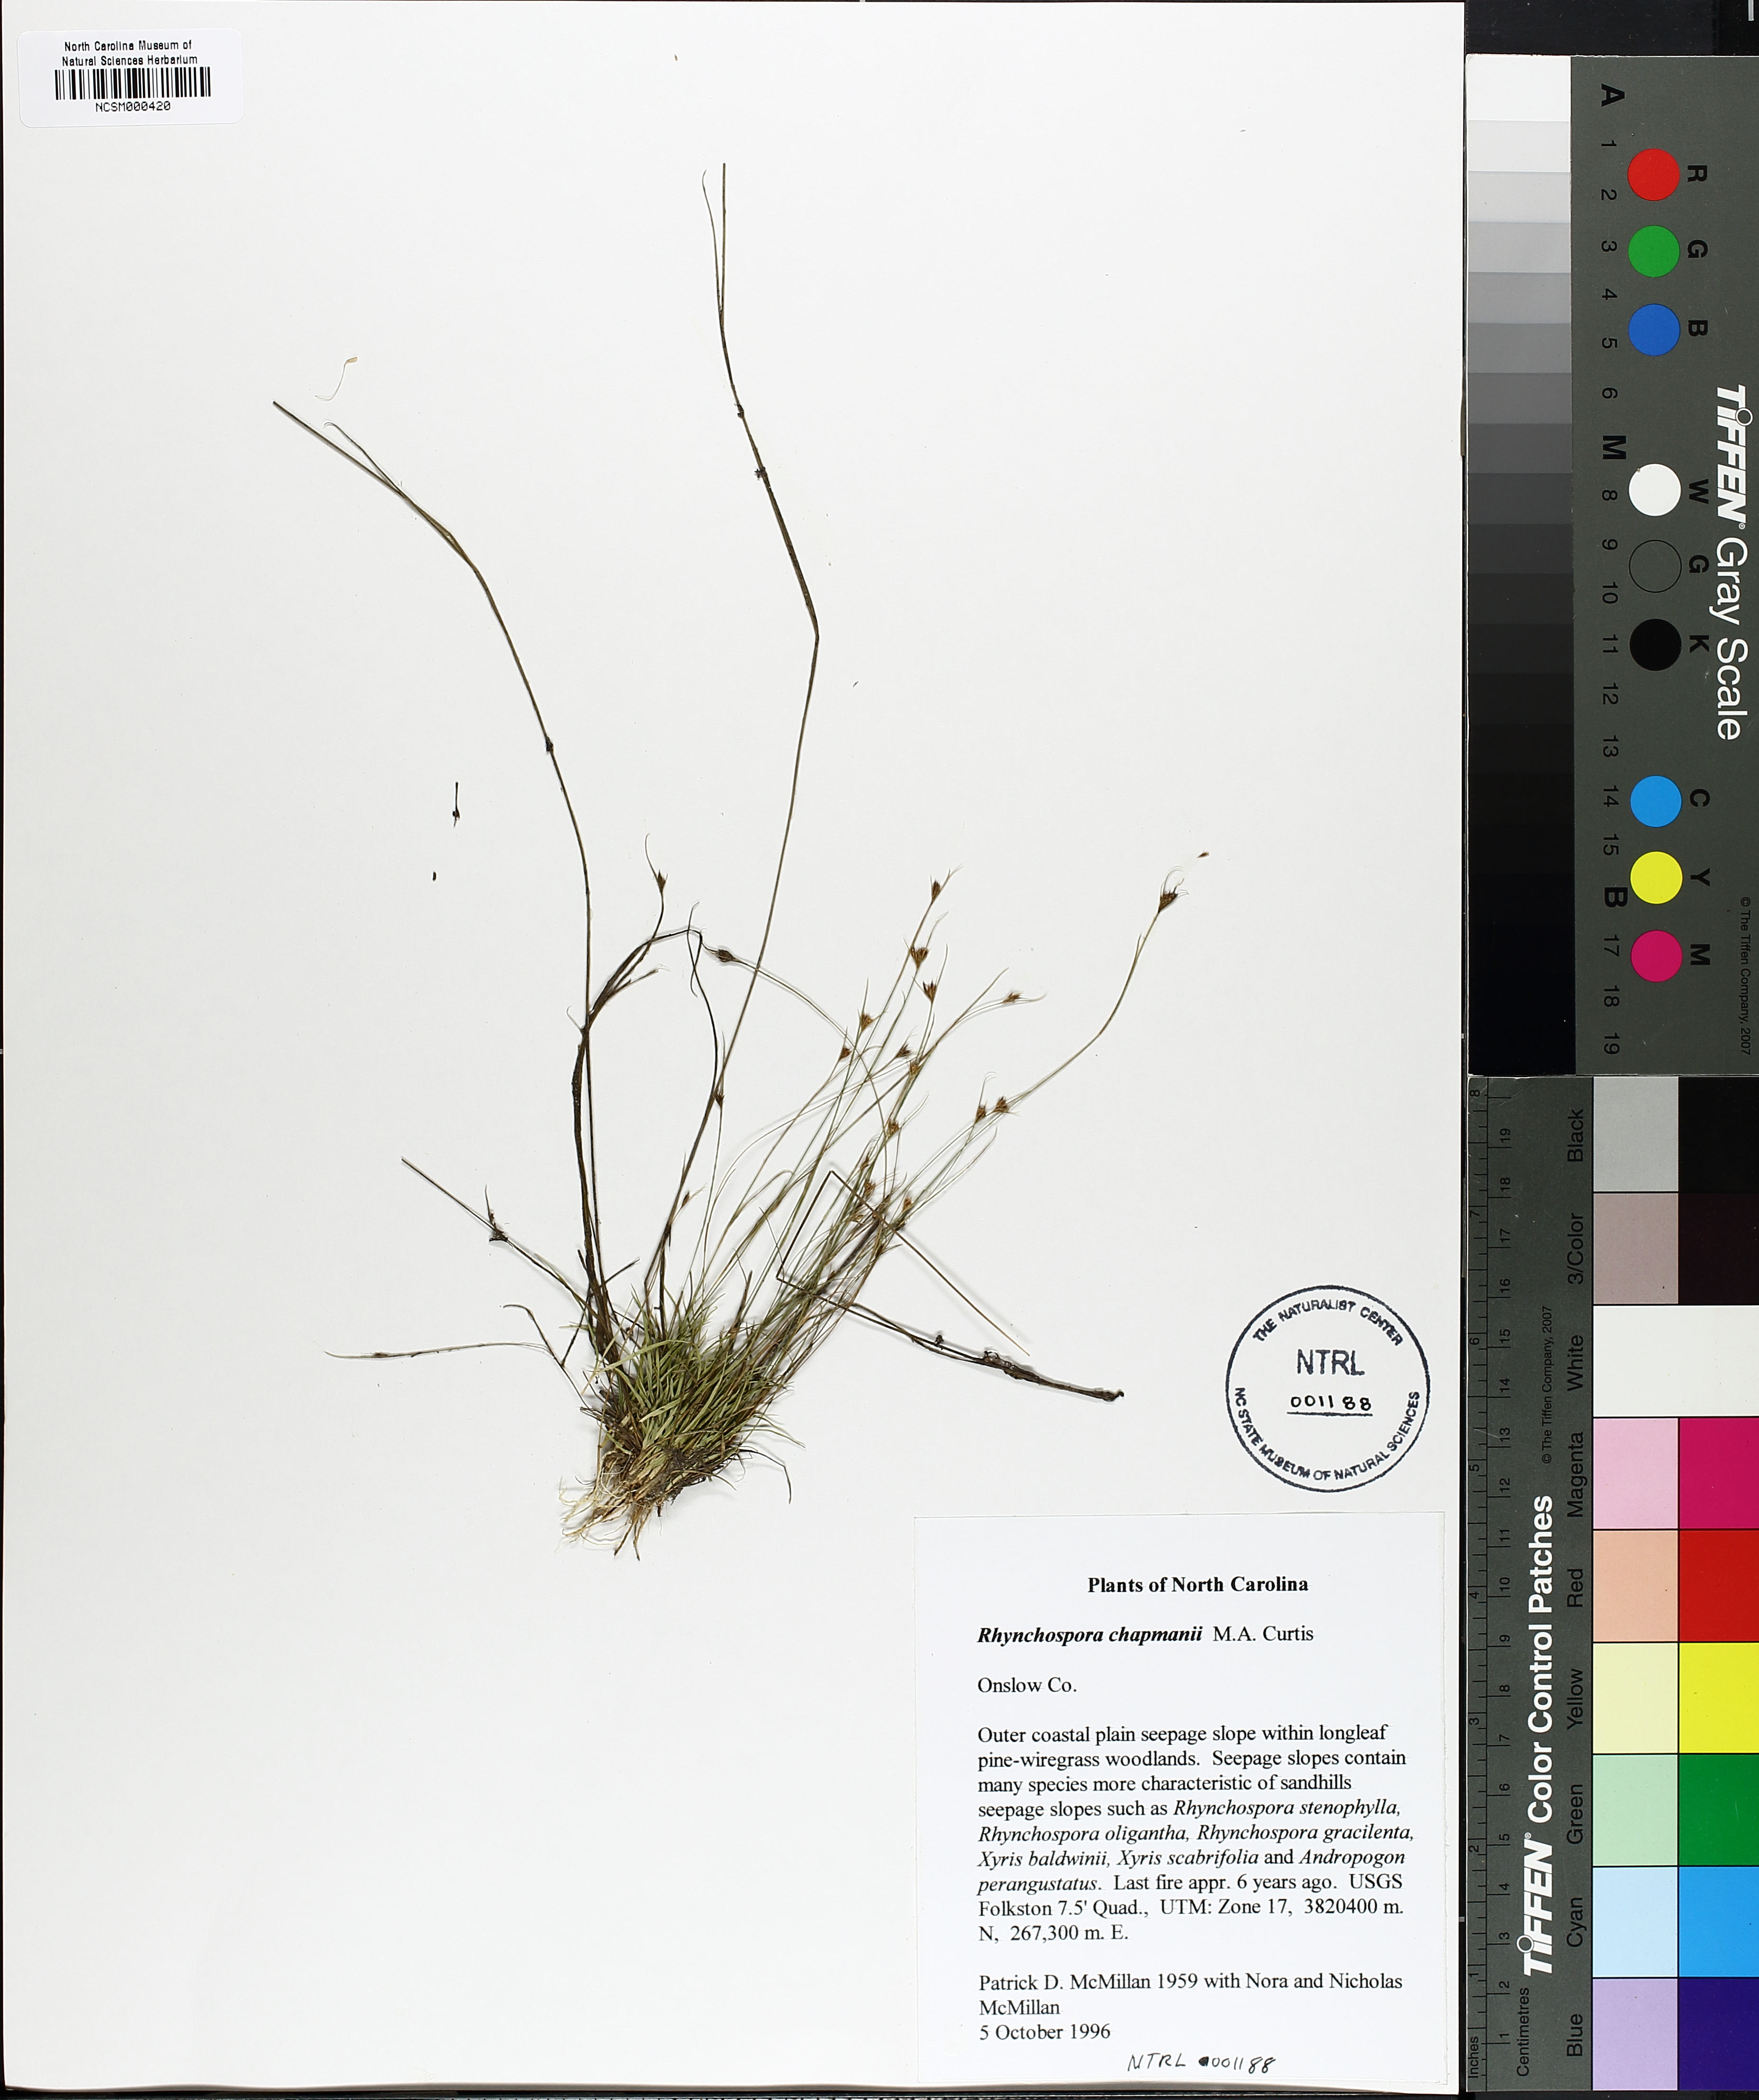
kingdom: Plantae
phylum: Tracheophyta
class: Liliopsida
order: Poales
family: Cyperaceae
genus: Rhynchospora
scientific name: Rhynchospora chapmanii
